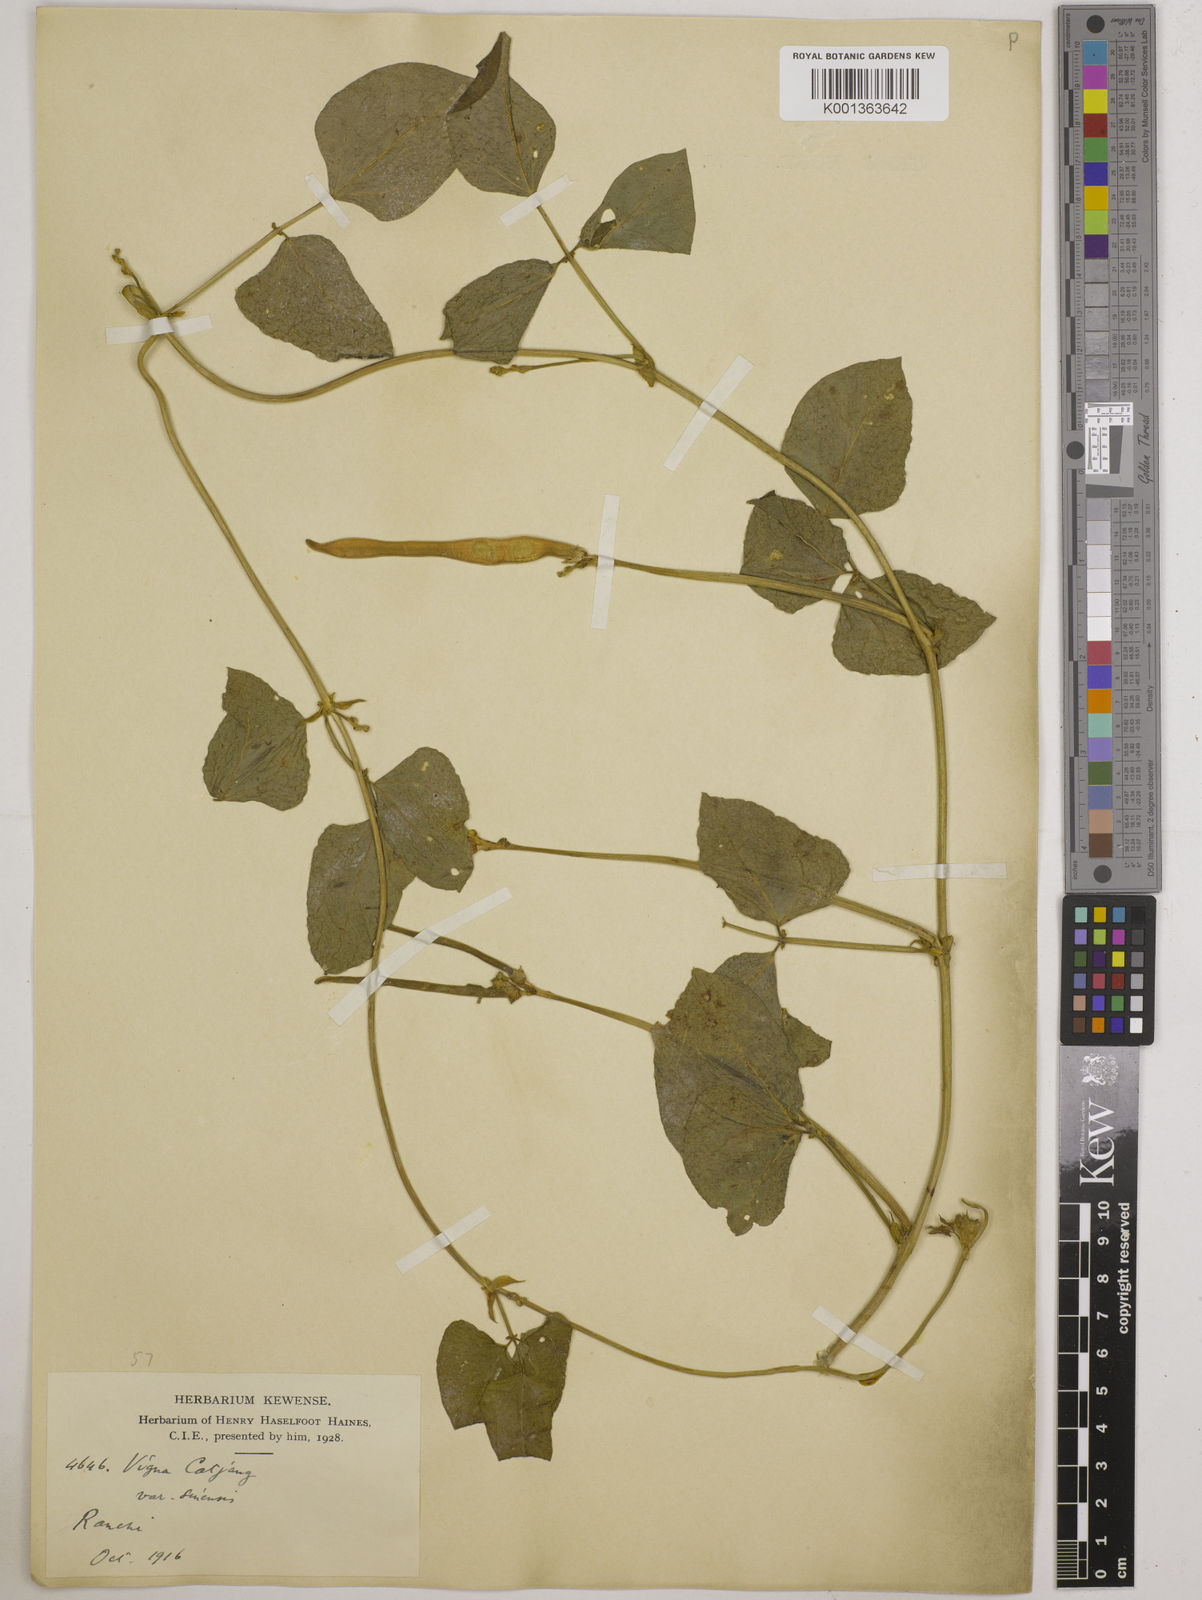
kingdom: Plantae
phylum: Tracheophyta
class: Magnoliopsida
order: Fabales
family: Fabaceae
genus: Vigna
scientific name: Vigna unguiculata
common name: Cowpea
